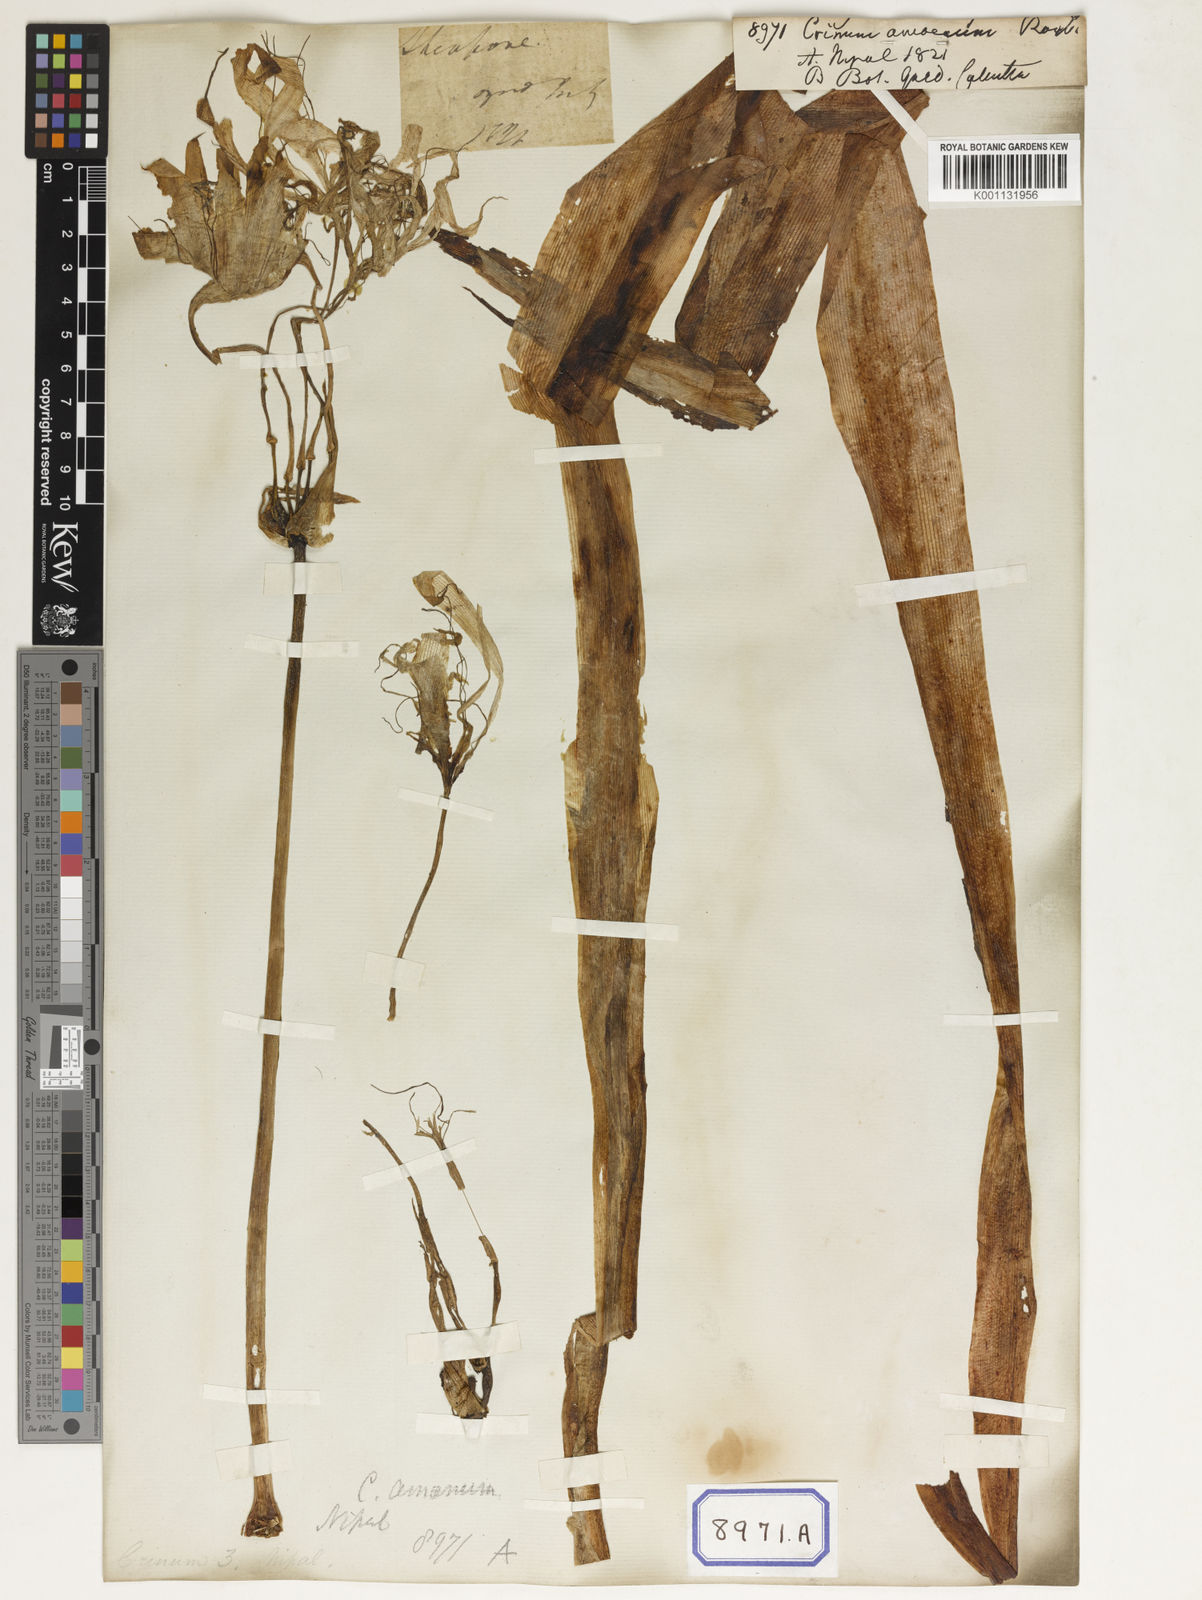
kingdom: Plantae
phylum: Tracheophyta
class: Liliopsida
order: Asparagales
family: Amaryllidaceae
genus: Crinum
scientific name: Crinum amoenum
